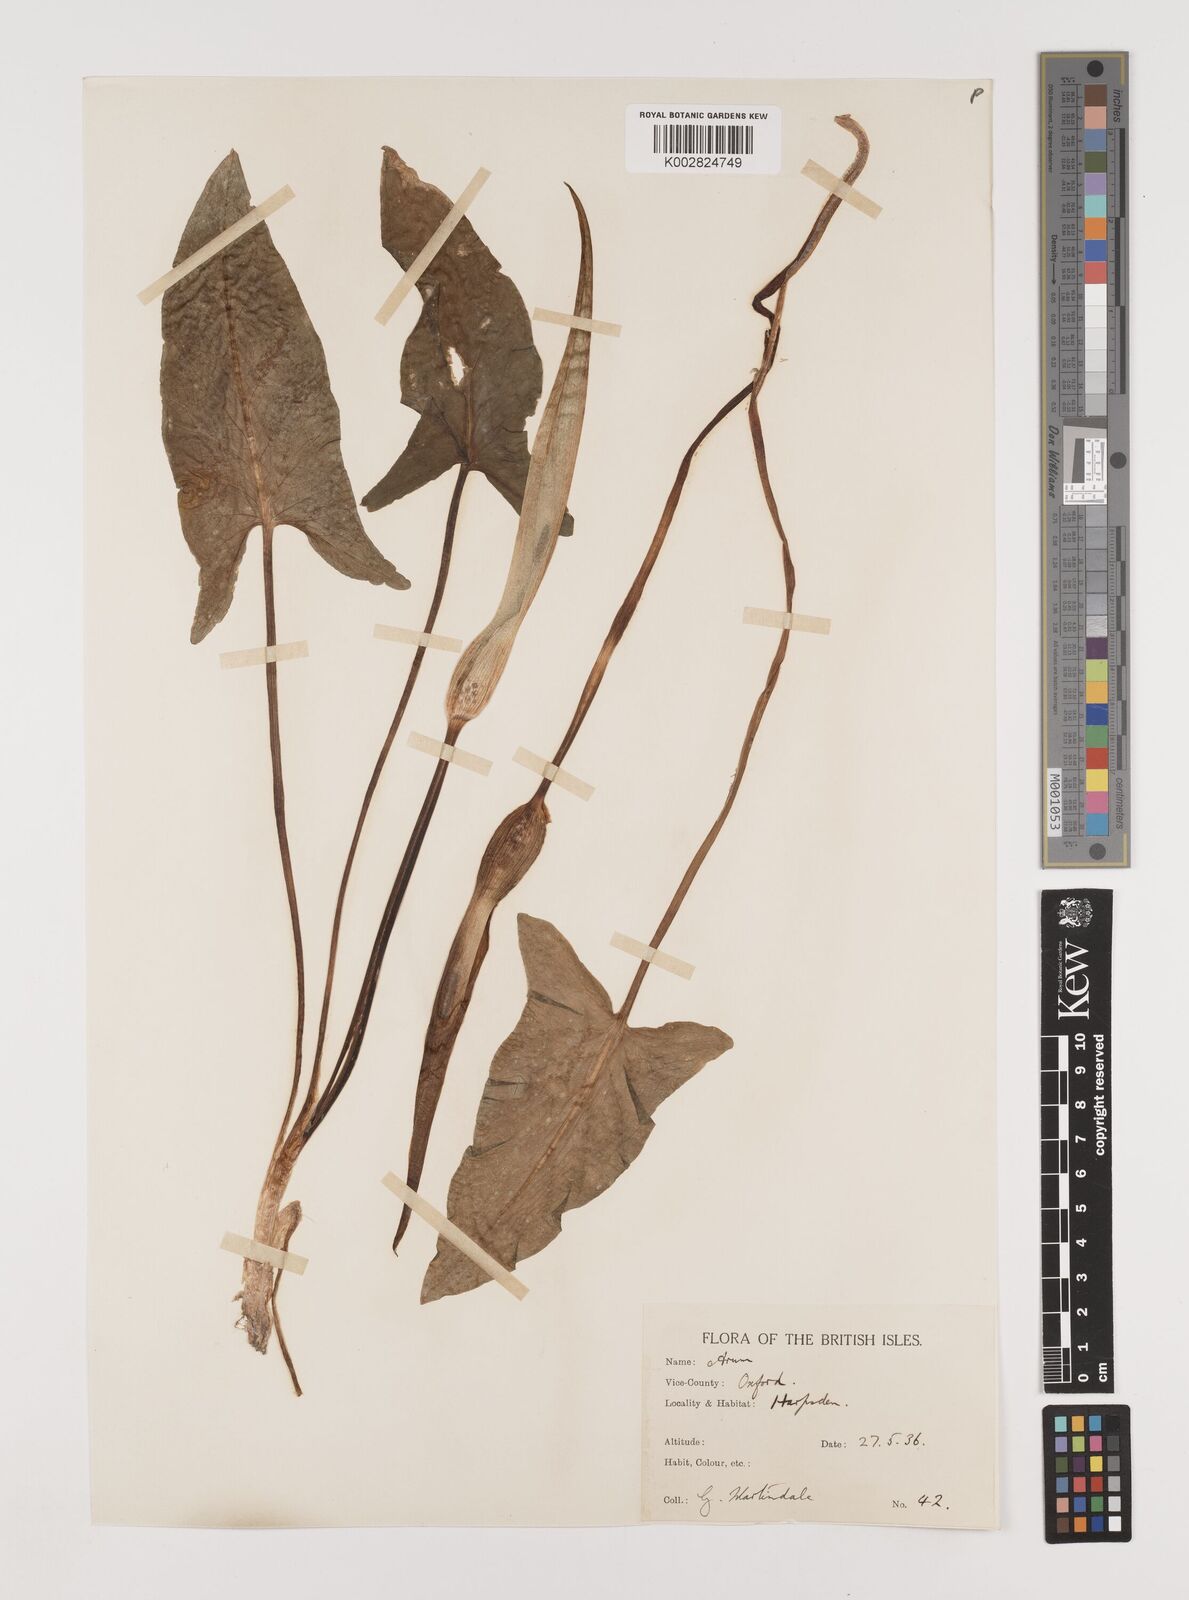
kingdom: Plantae
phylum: Tracheophyta
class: Liliopsida
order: Alismatales
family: Araceae
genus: Arum
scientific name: Arum maculatum
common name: Lords-and-ladies
